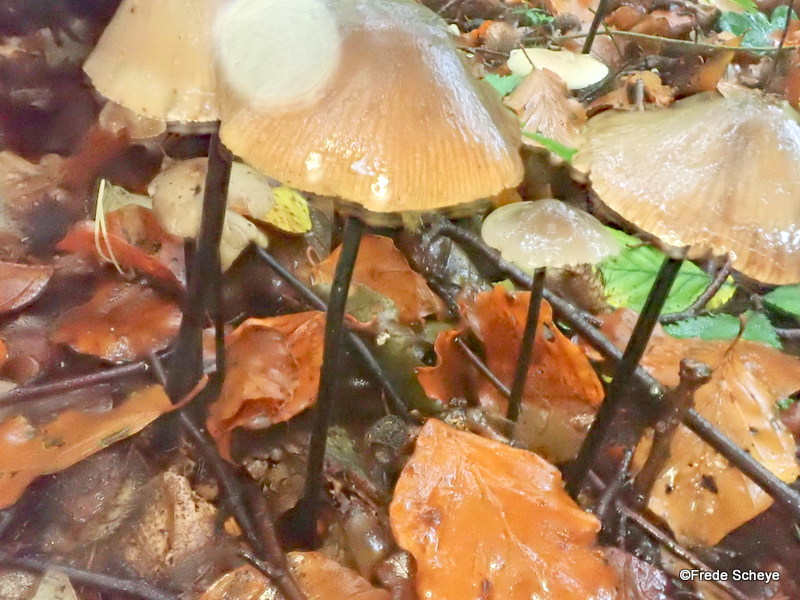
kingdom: Fungi
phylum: Basidiomycota
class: Agaricomycetes
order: Agaricales
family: Omphalotaceae
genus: Mycetinis
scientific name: Mycetinis alliaceus
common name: stor løghat
